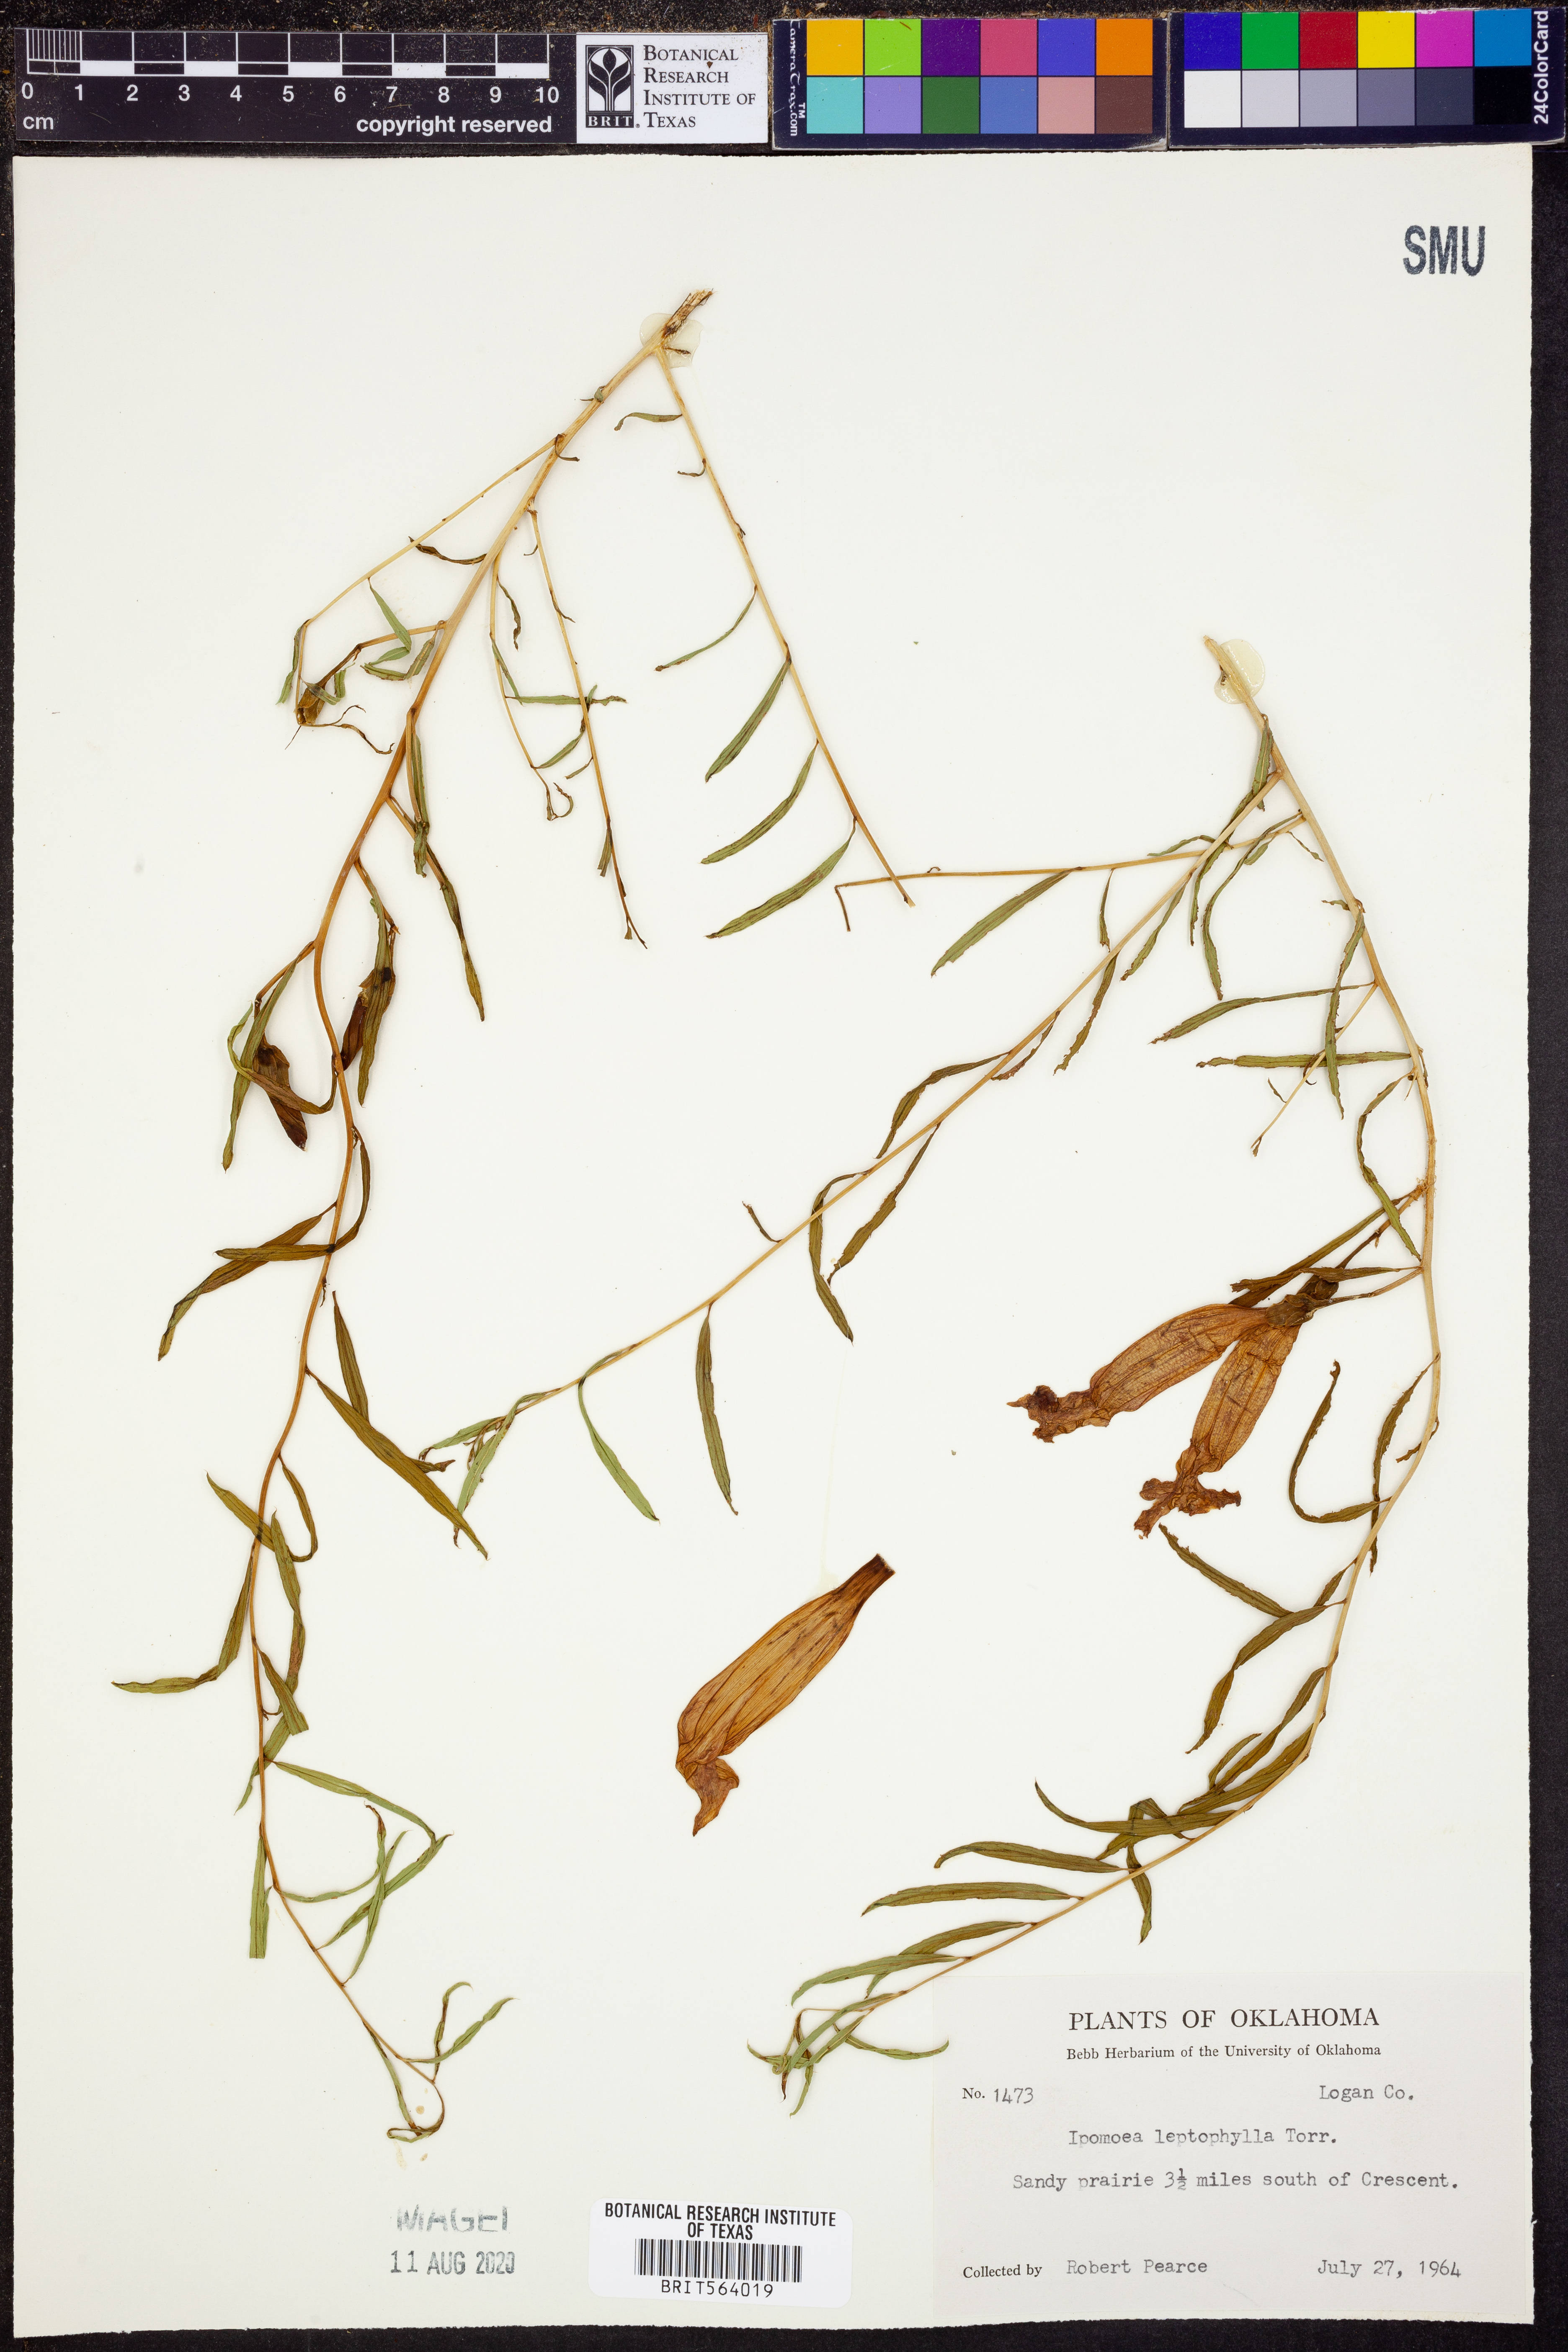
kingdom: Plantae
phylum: Tracheophyta
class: Magnoliopsida
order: Solanales
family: Convolvulaceae
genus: Ipomoea
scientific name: Ipomoea leptophylla
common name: Bush moonflower
